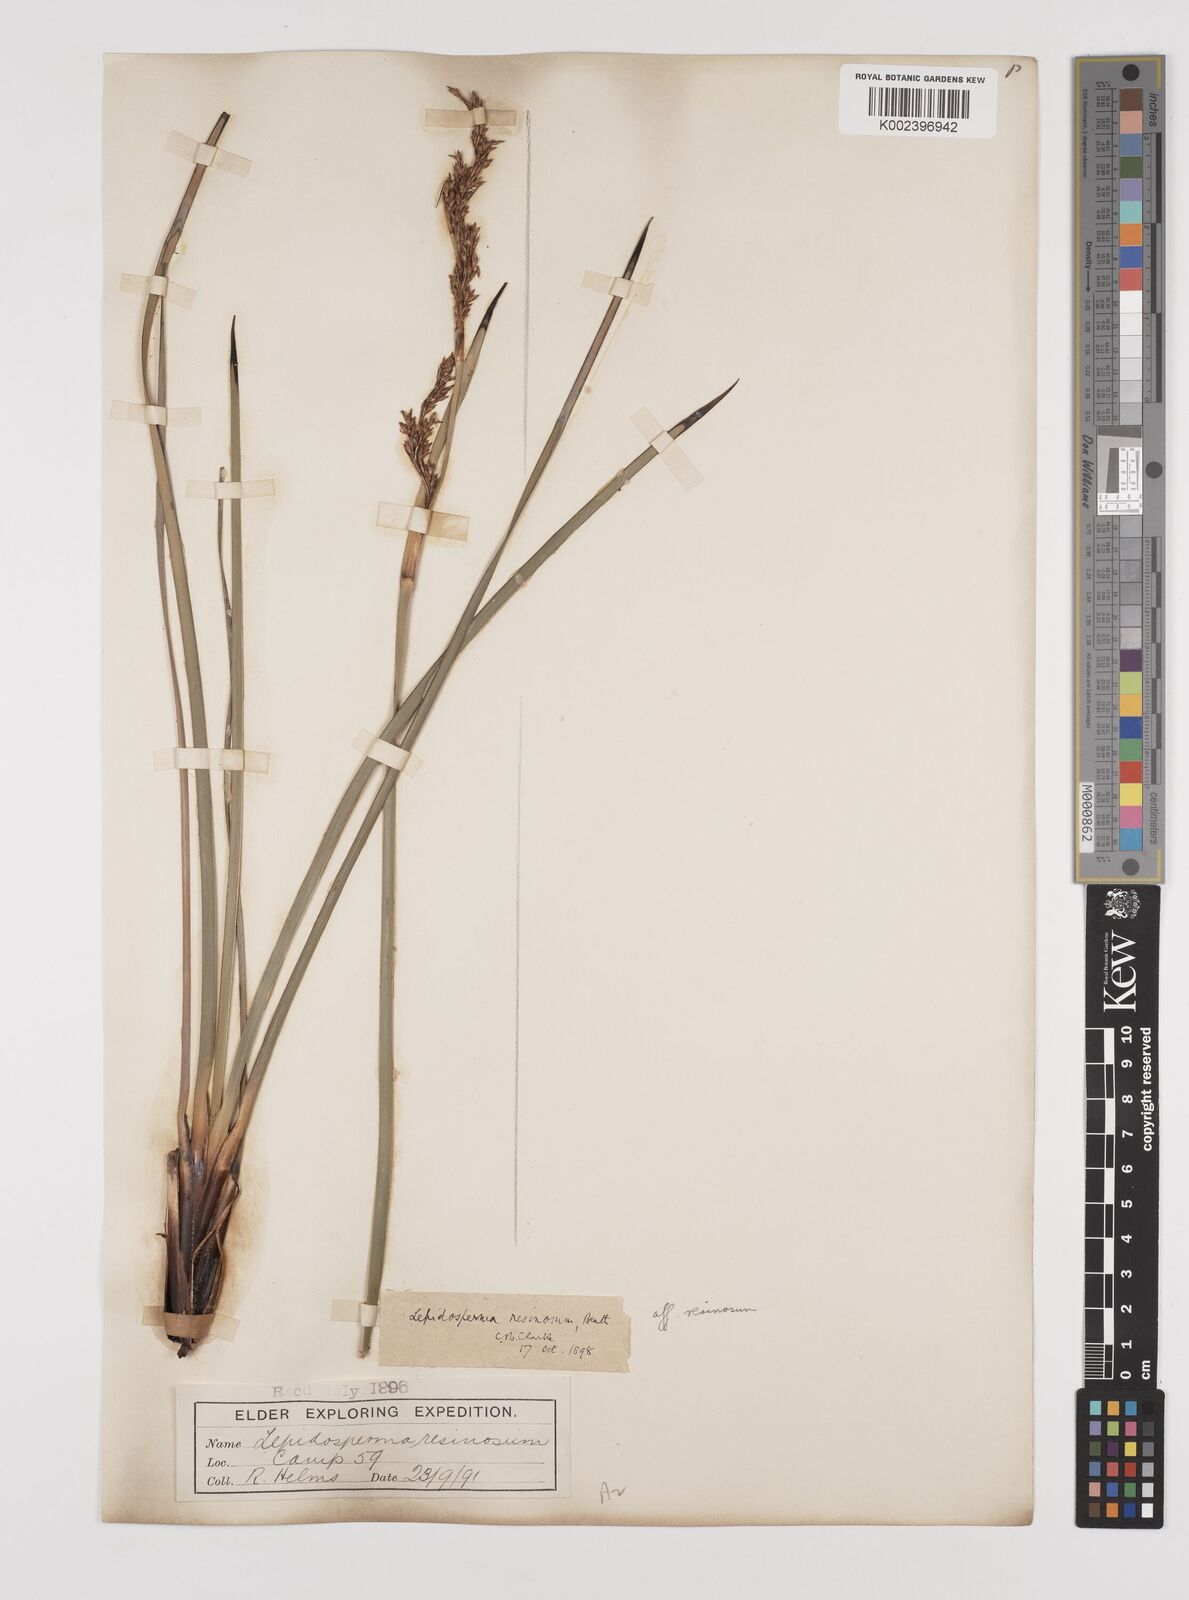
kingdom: Plantae
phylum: Tracheophyta
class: Liliopsida
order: Poales
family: Cyperaceae
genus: Lepidosperma
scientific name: Lepidosperma resinosum
